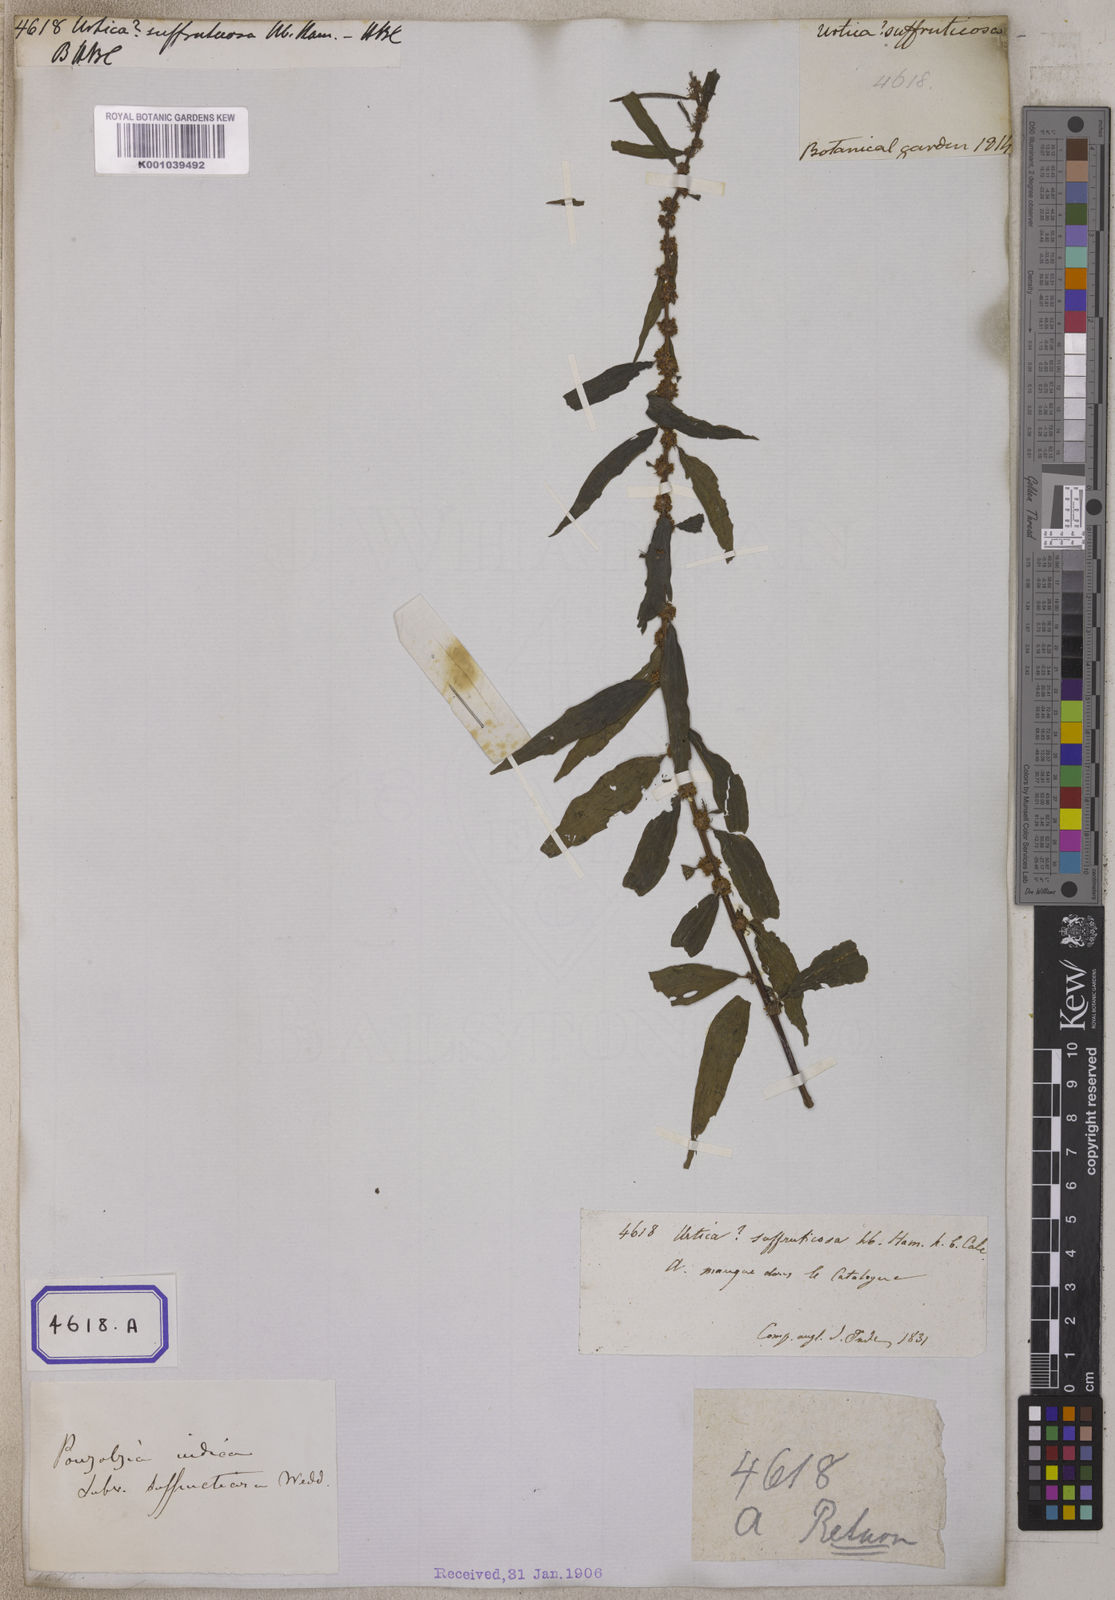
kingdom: Plantae
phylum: Tracheophyta
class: Magnoliopsida
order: Rosales
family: Urticaceae
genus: Pouzolzia
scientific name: Pouzolzia zeylanica
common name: Graceful pouzolzsbush
